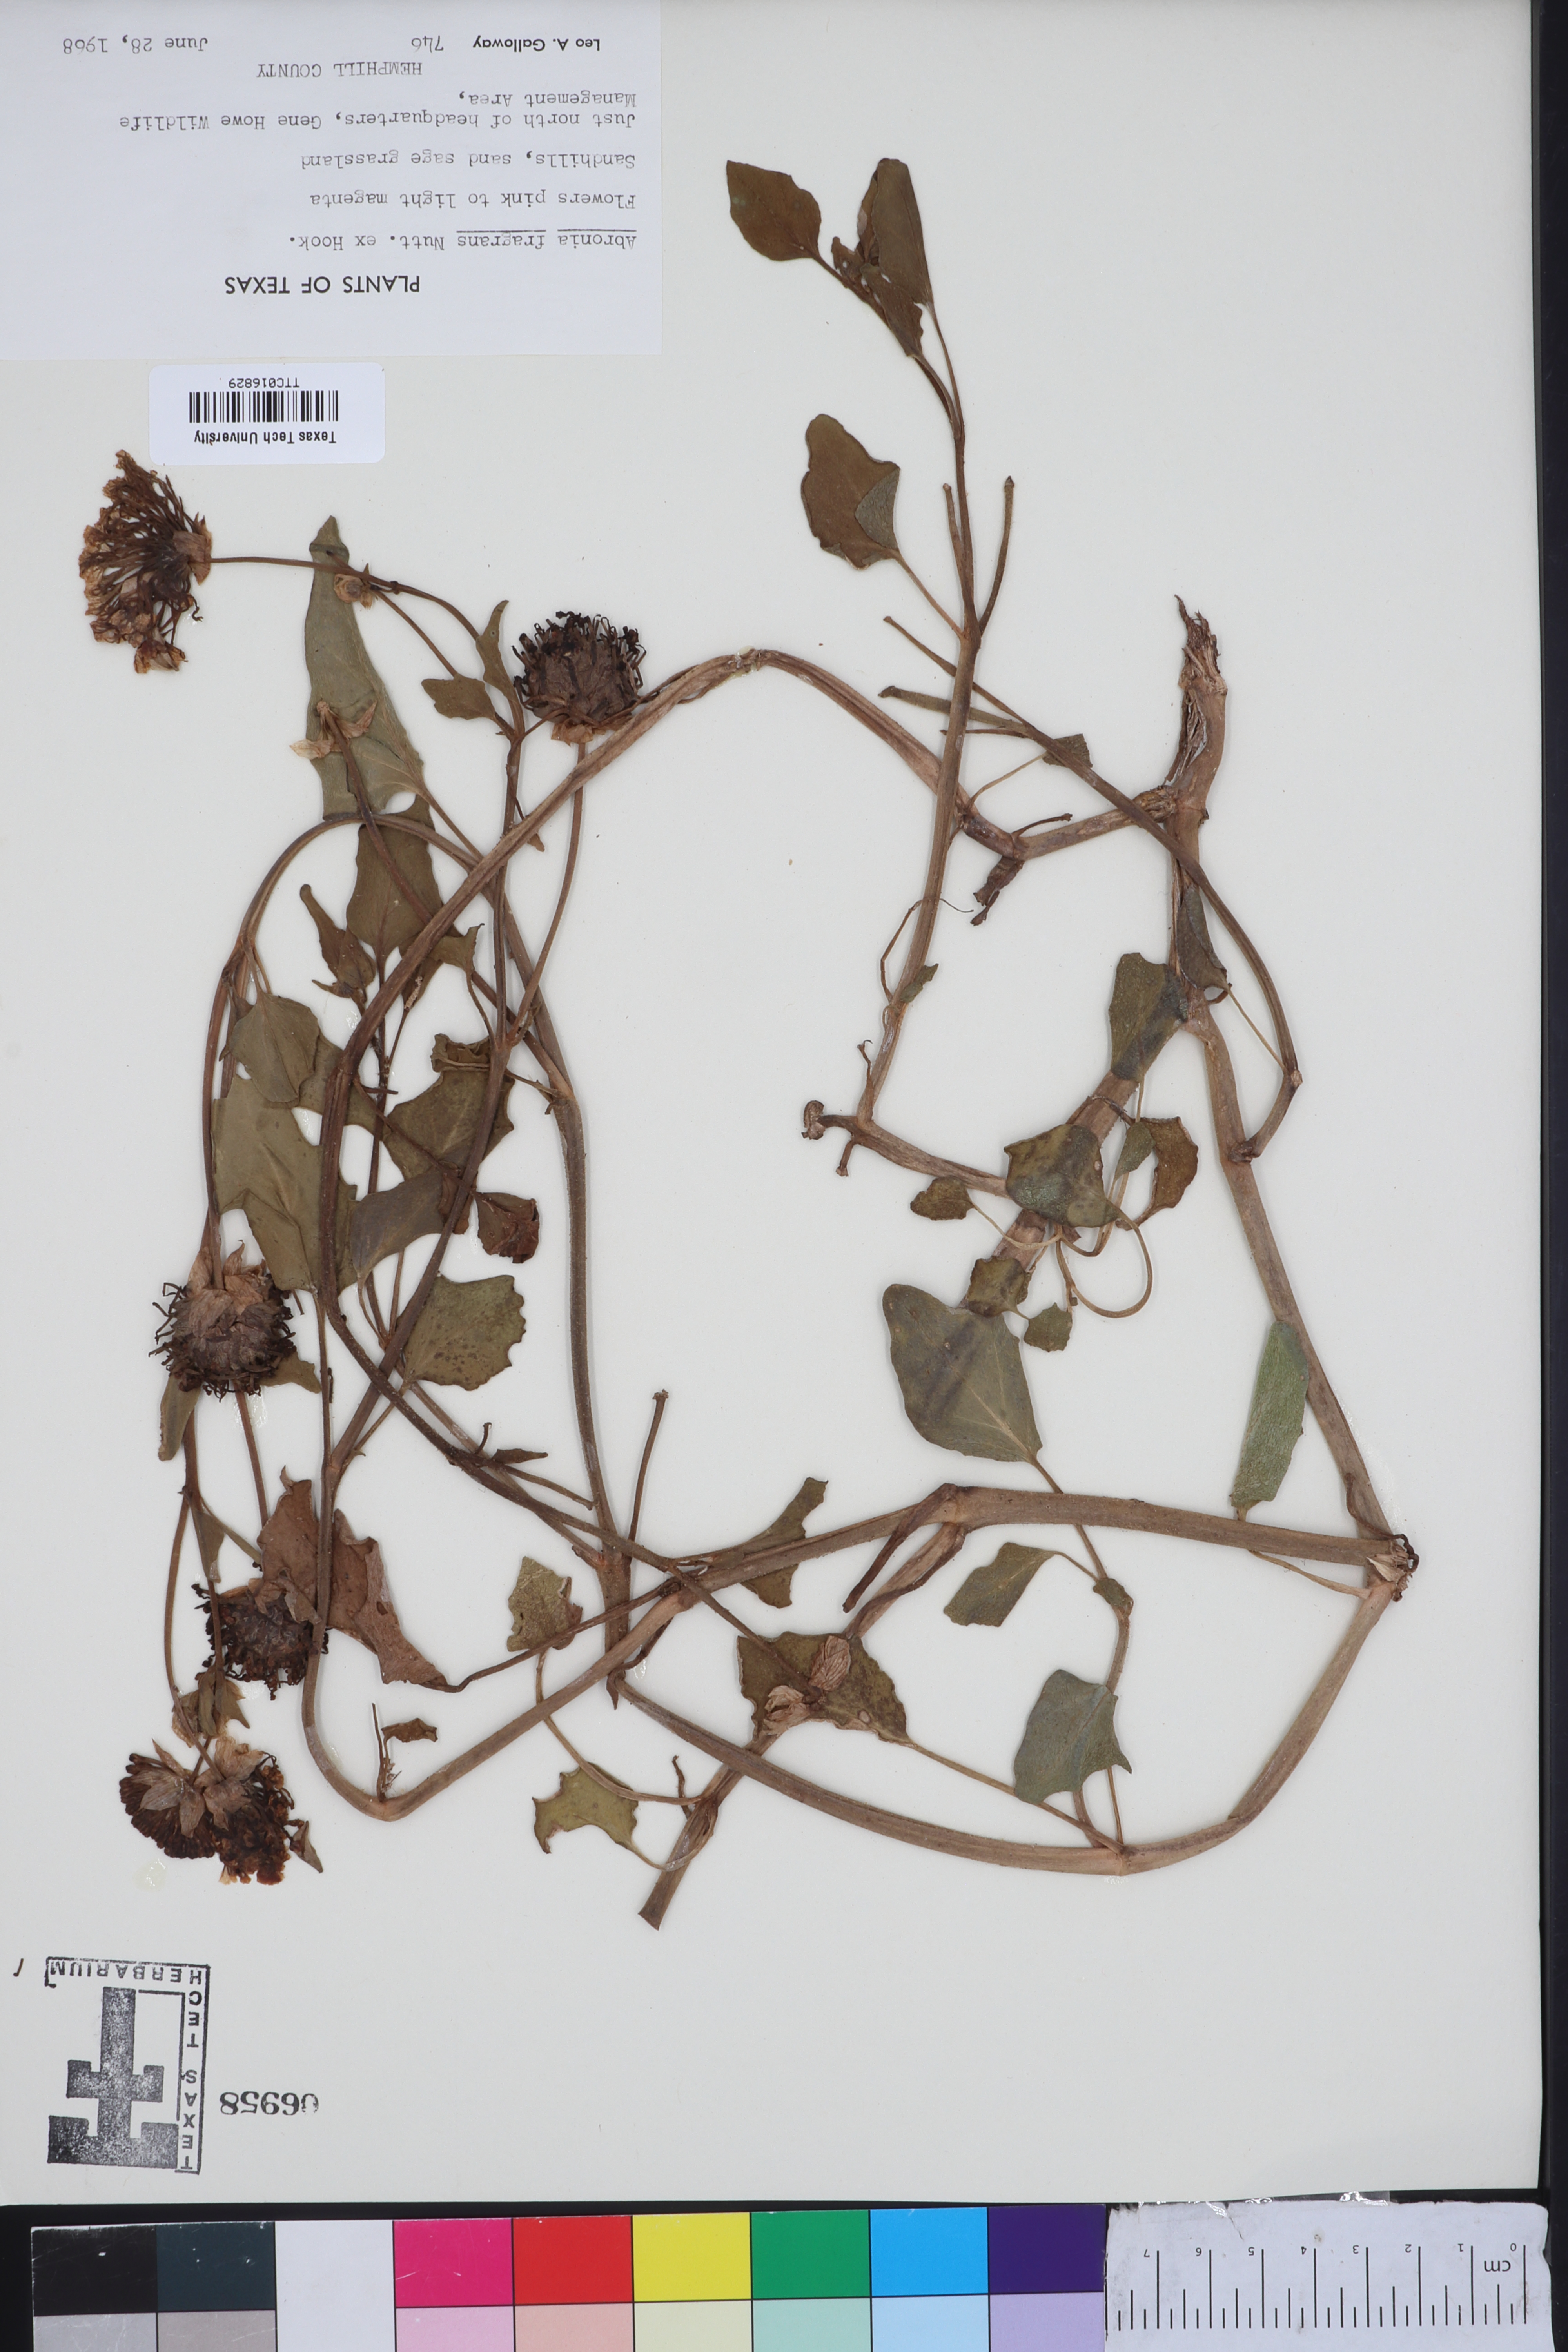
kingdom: Plantae
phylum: Tracheophyta
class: Magnoliopsida
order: Caryophyllales
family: Nyctaginaceae
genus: Abronia
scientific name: Abronia fragrans
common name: Fragrant sand-verbena
